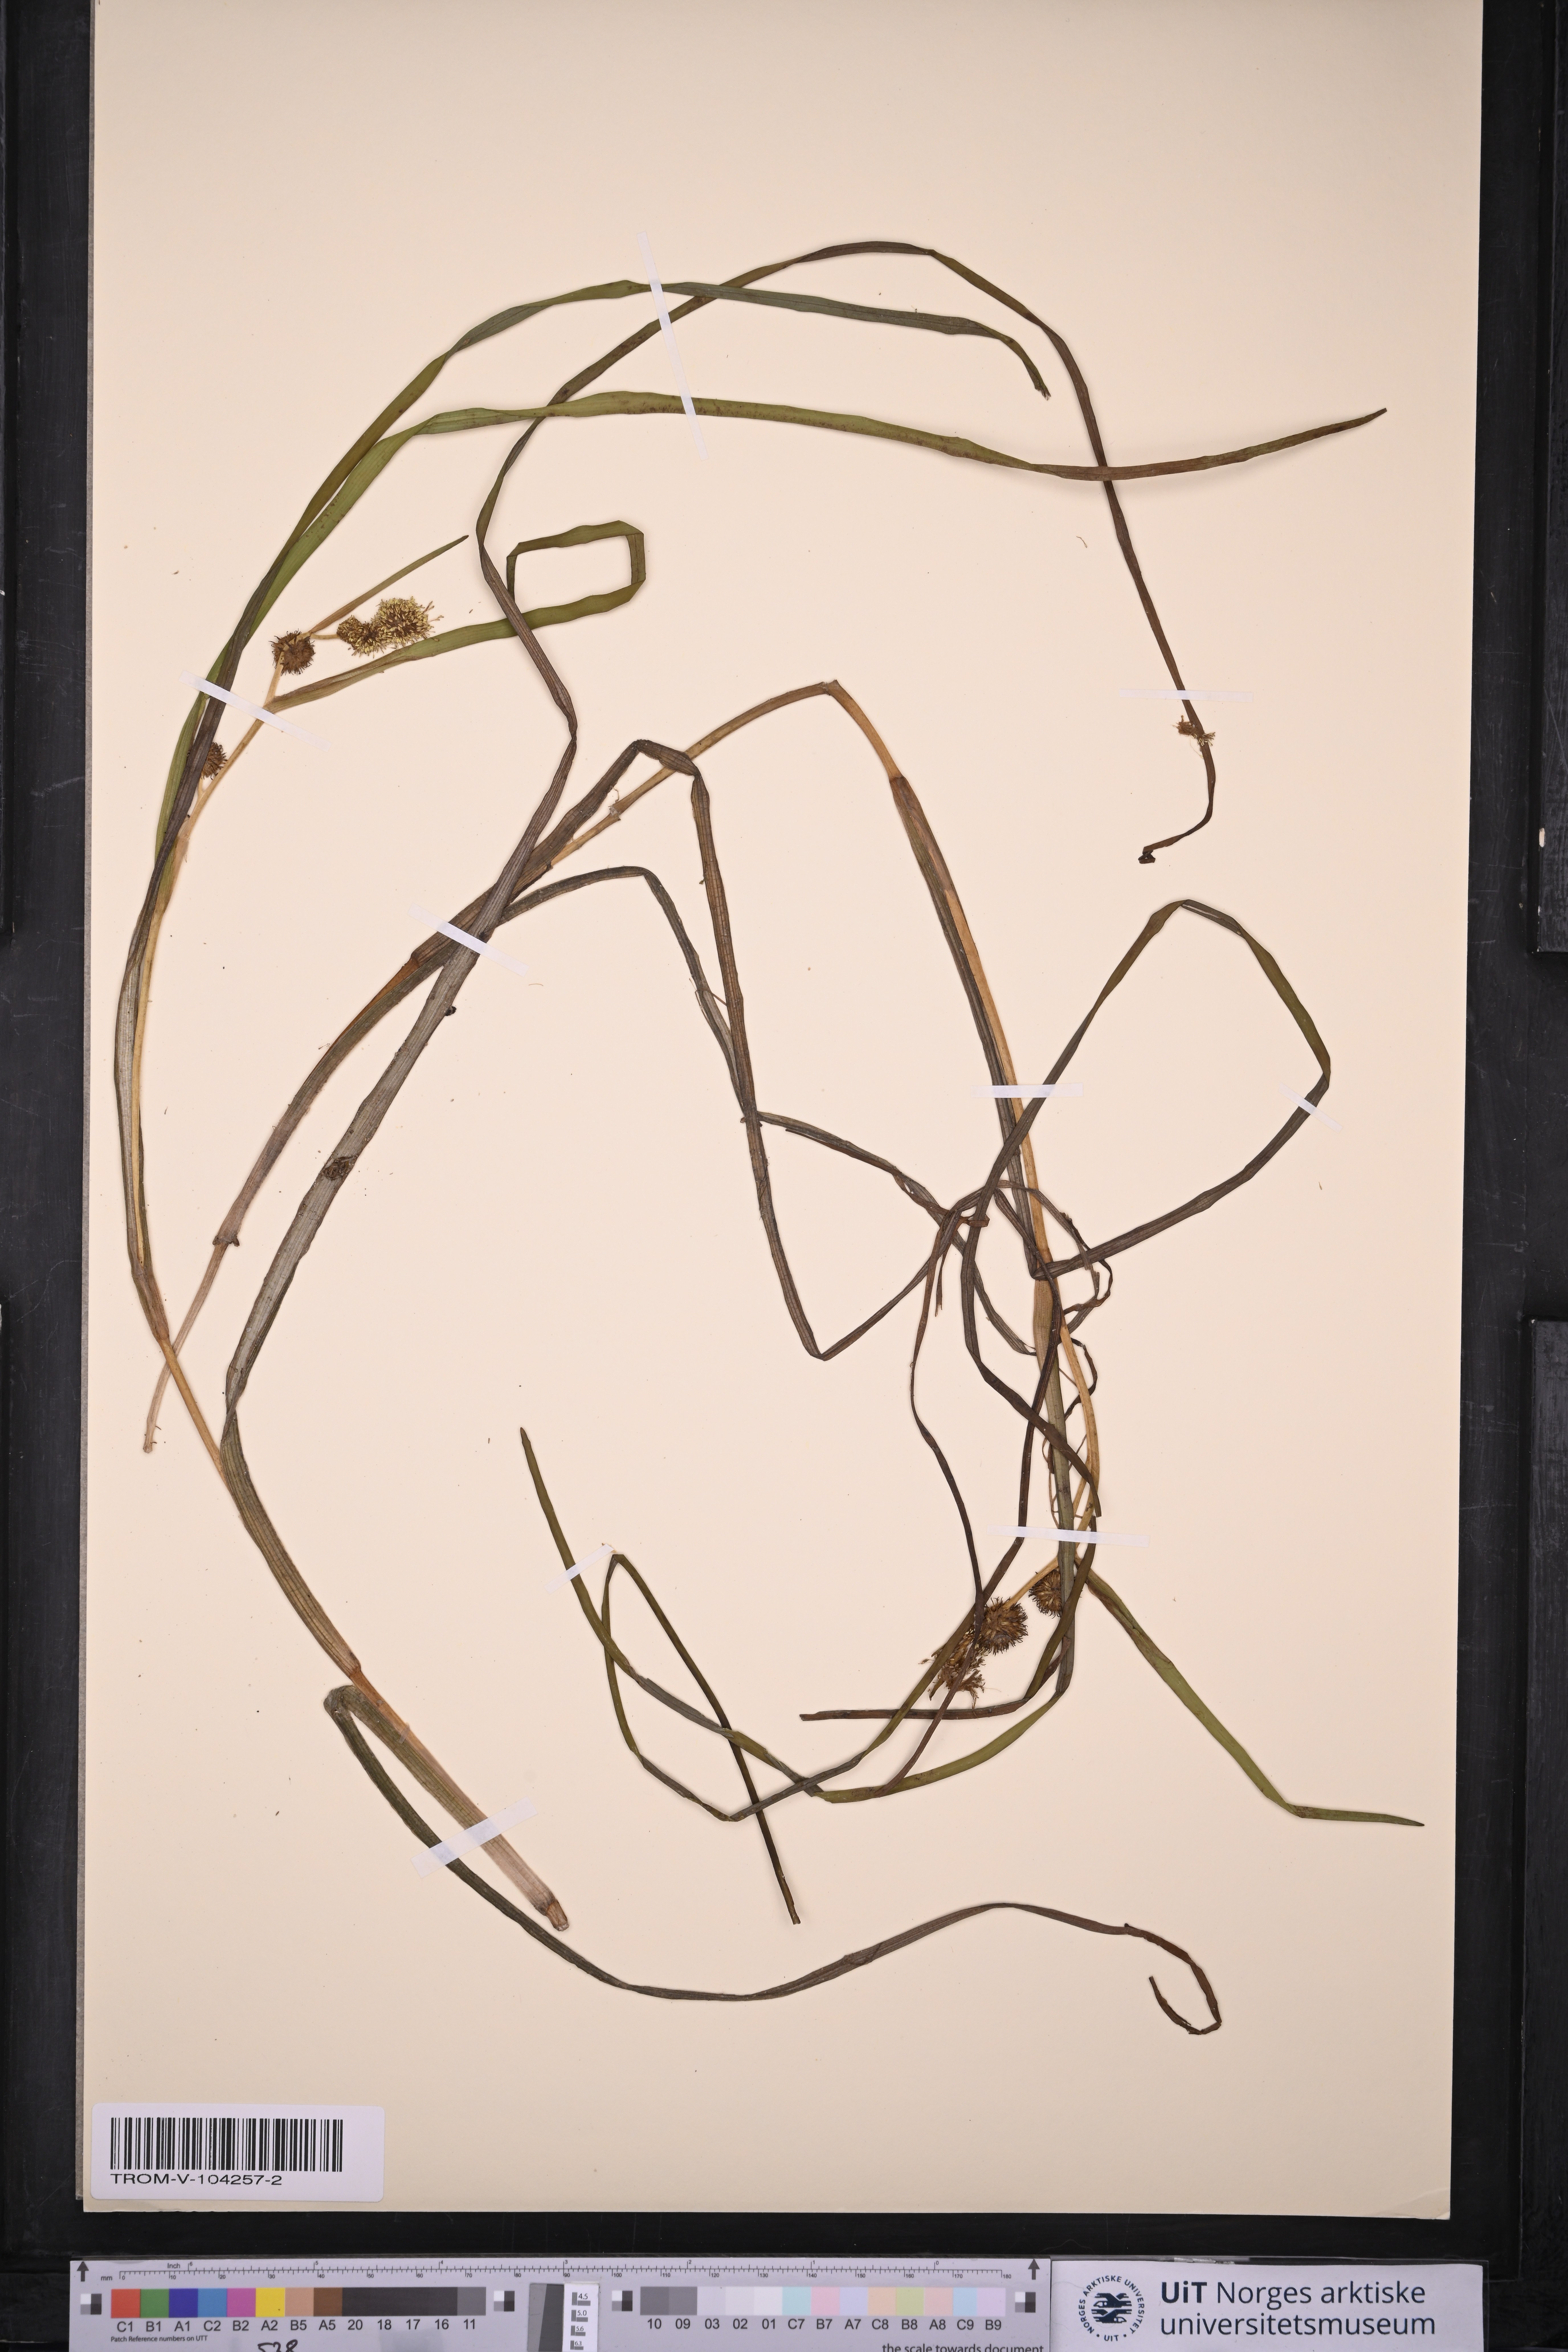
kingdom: Plantae
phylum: Tracheophyta
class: Liliopsida
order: Poales
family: Typhaceae
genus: Sparganium
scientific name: Sparganium angustifolium
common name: Floating bur-reed
